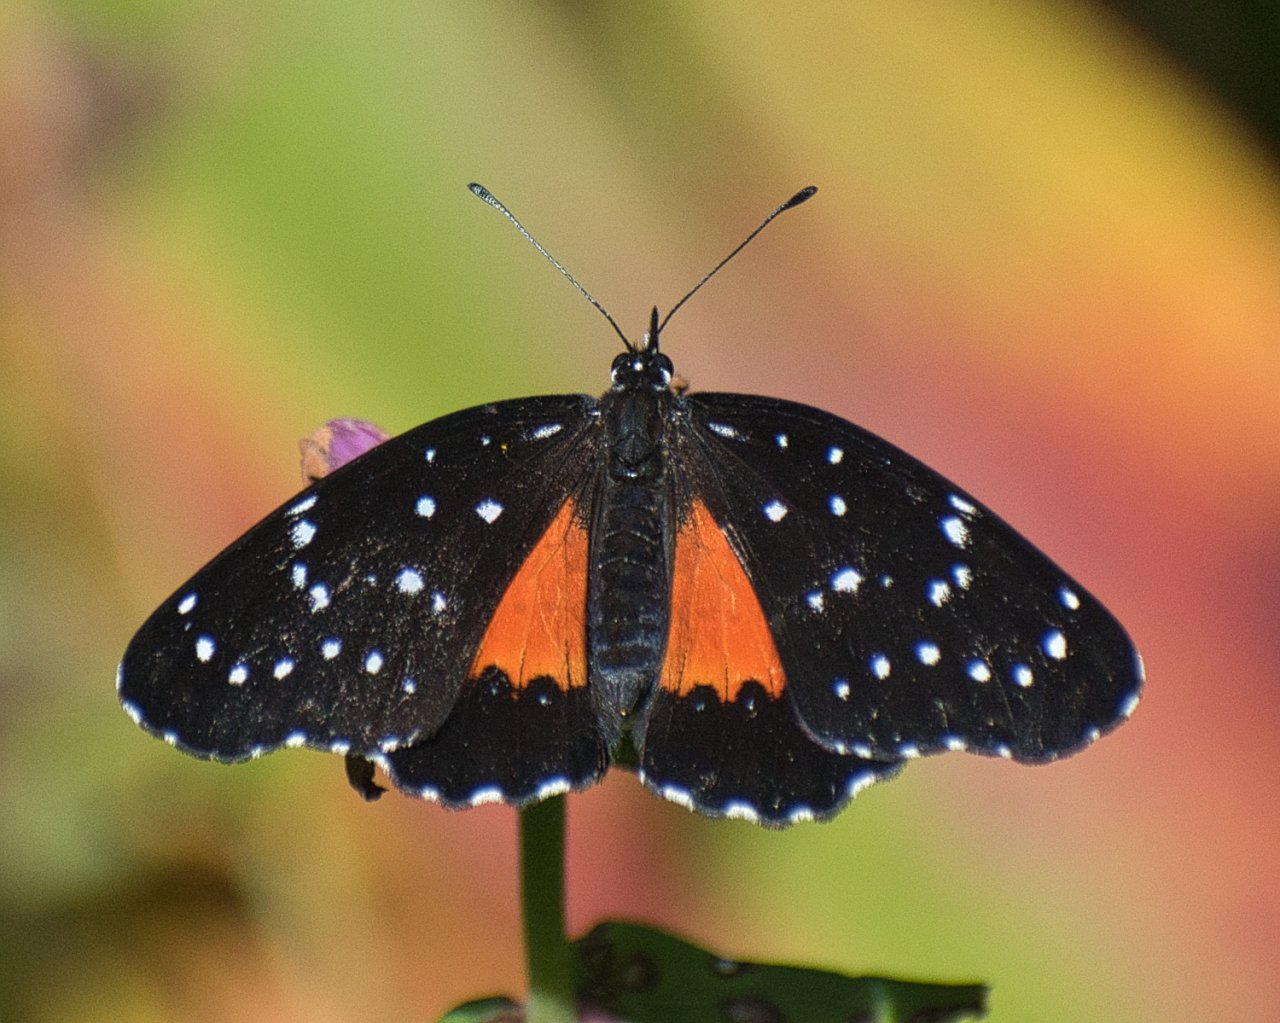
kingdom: Animalia
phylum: Arthropoda
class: Insecta
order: Lepidoptera
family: Nymphalidae
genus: Chlosyne
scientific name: Chlosyne janais
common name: Crimson Patch
